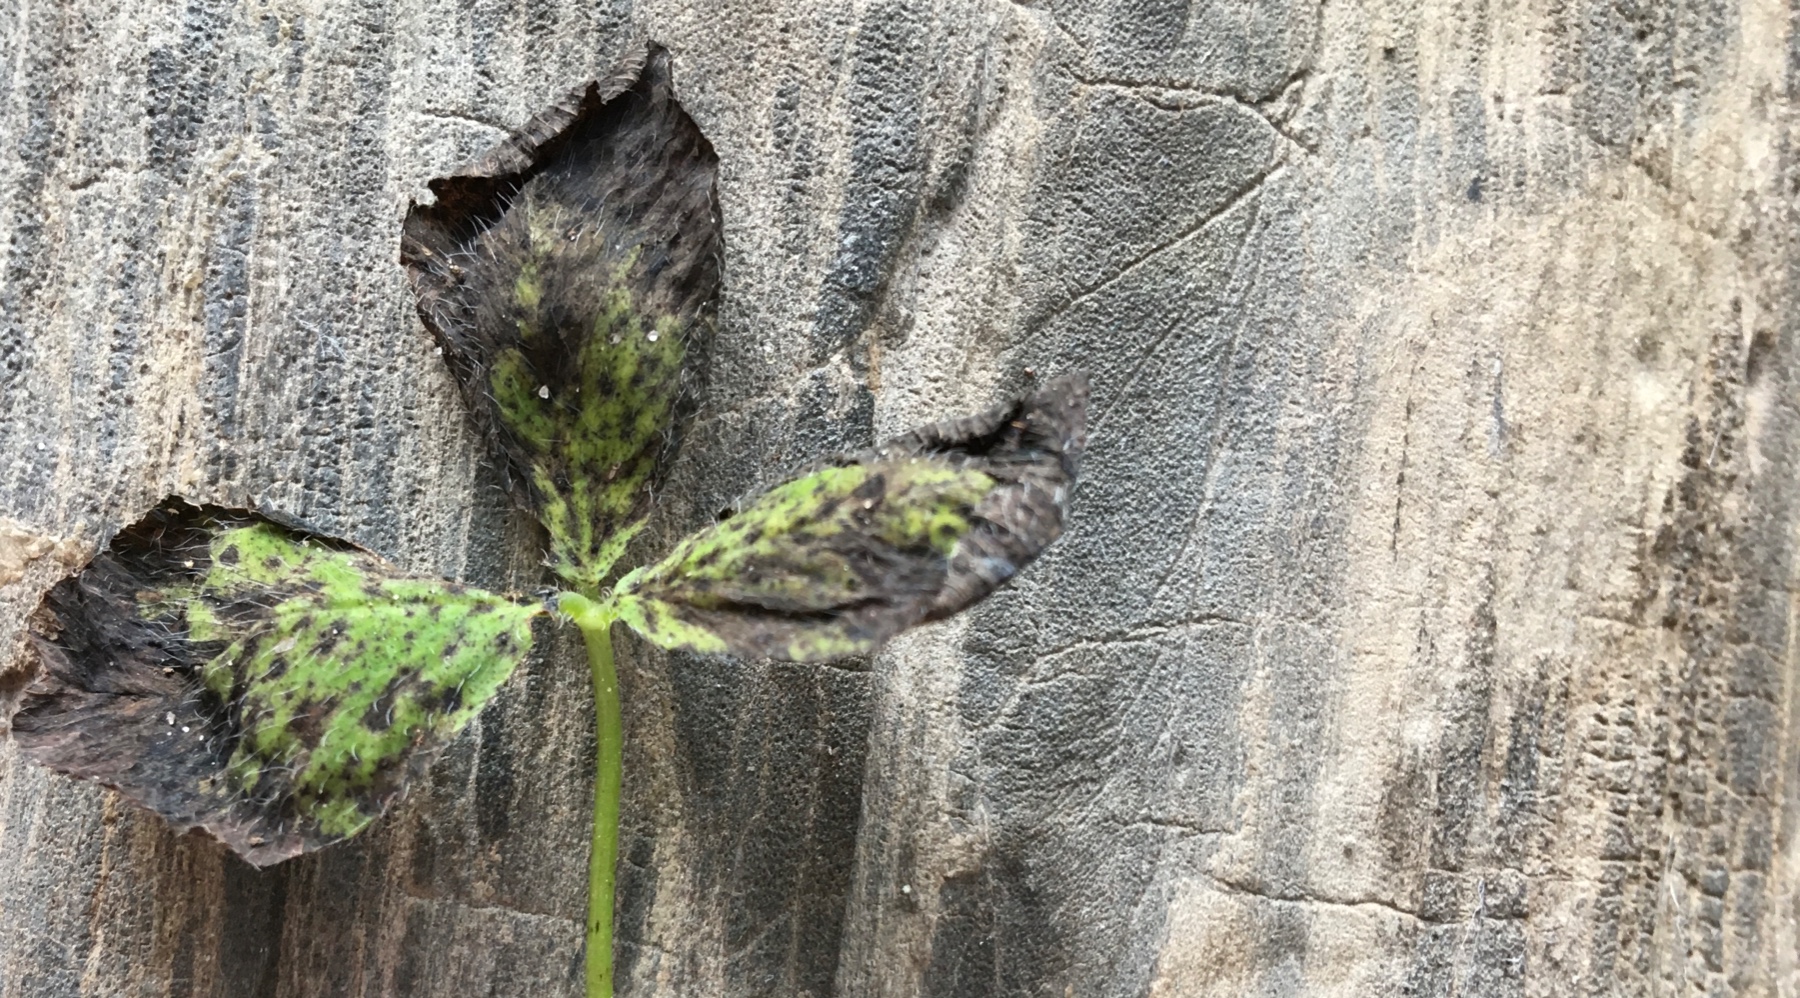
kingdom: Fungi
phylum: Ascomycota
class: Leotiomycetes
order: Helotiales
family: Drepanopezizaceae
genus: Pseudopeziza
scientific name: Pseudopeziza trifolii
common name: kløver-bladskive
